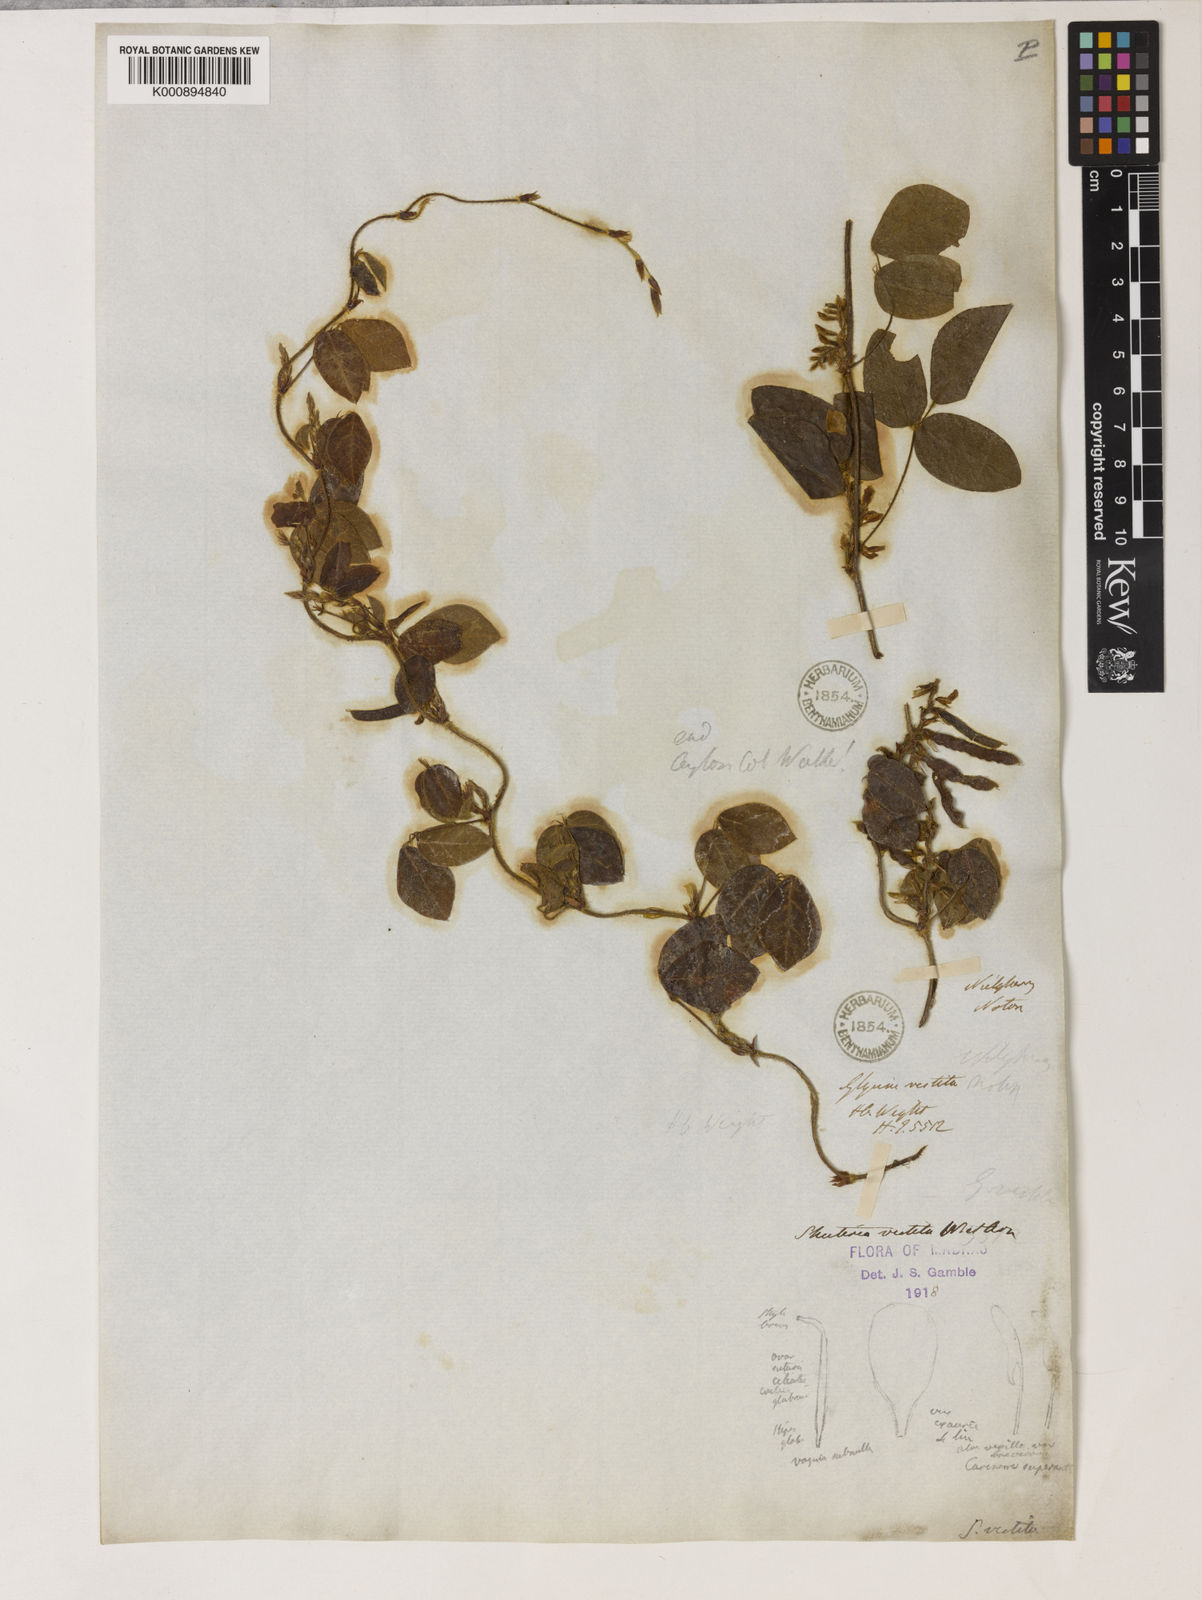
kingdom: Plantae
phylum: Tracheophyta
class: Magnoliopsida
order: Fabales
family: Fabaceae
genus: Shuteria
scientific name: Shuteria vestita
